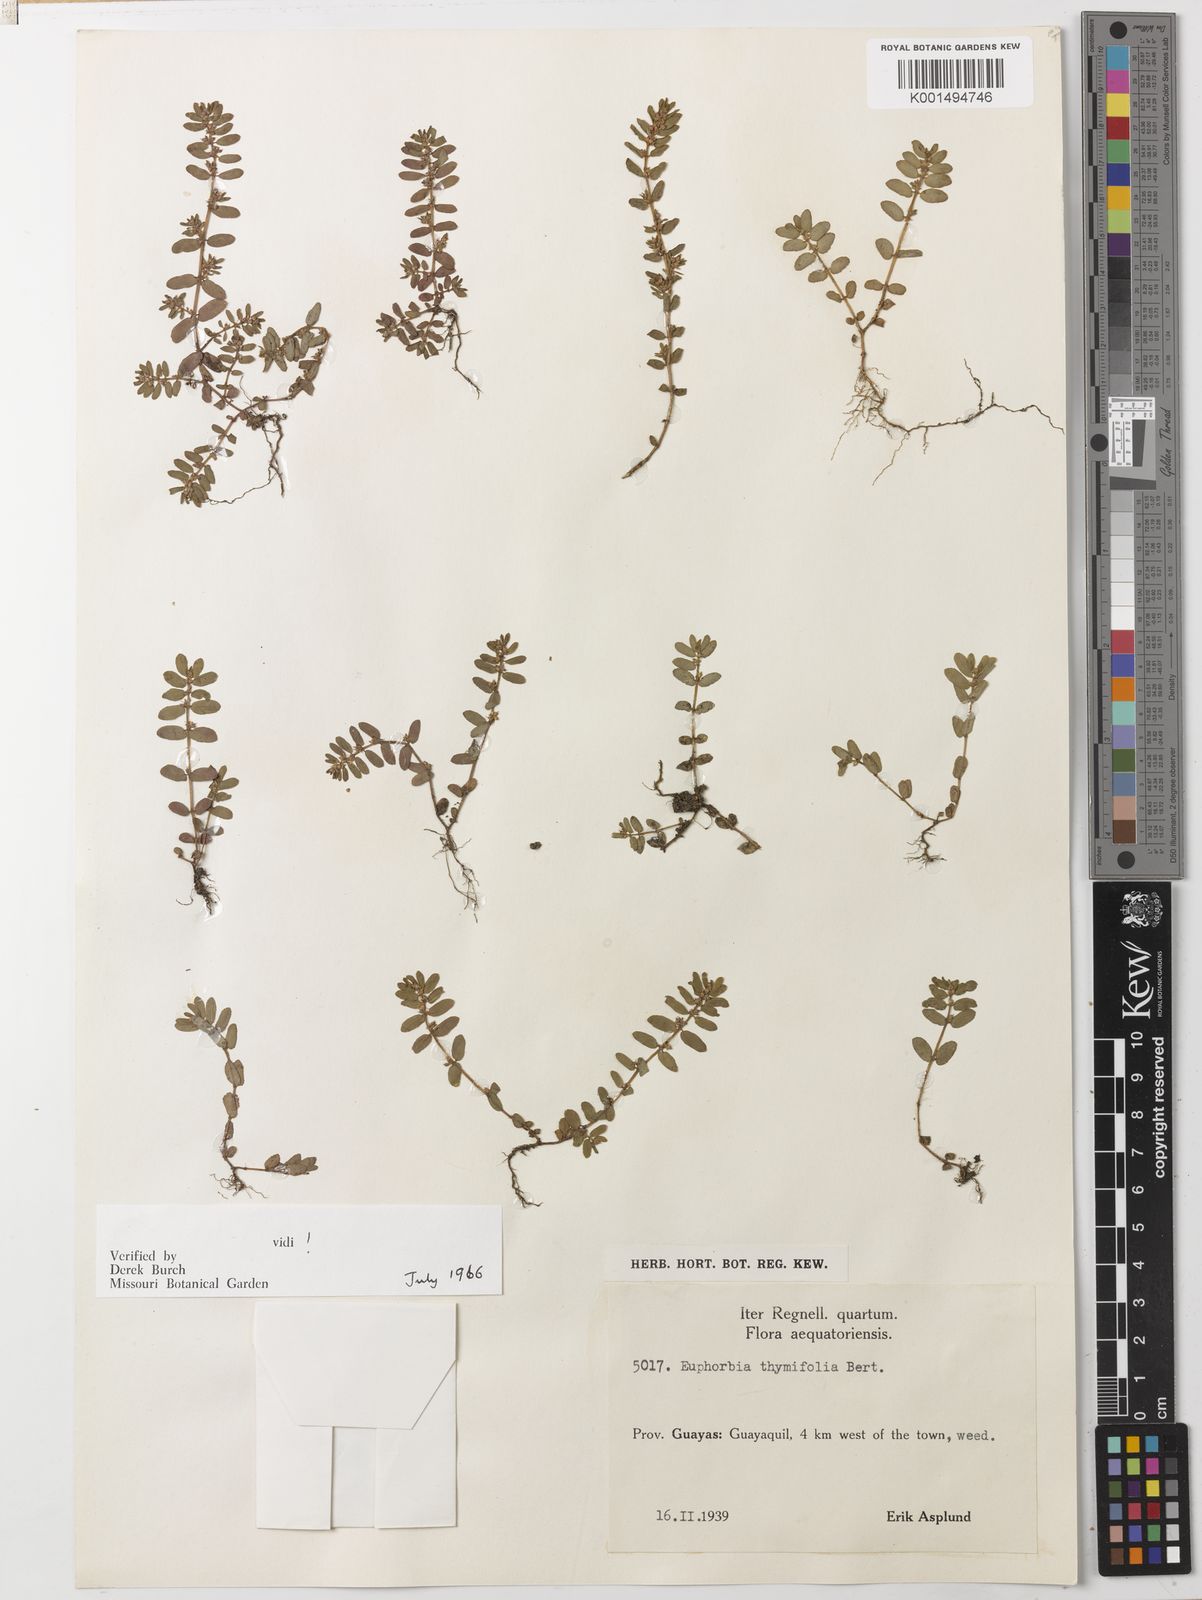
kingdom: Plantae
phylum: Tracheophyta
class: Magnoliopsida
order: Malpighiales
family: Euphorbiaceae
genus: Euphorbia
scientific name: Euphorbia thymifolia
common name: Gulf sandmat
